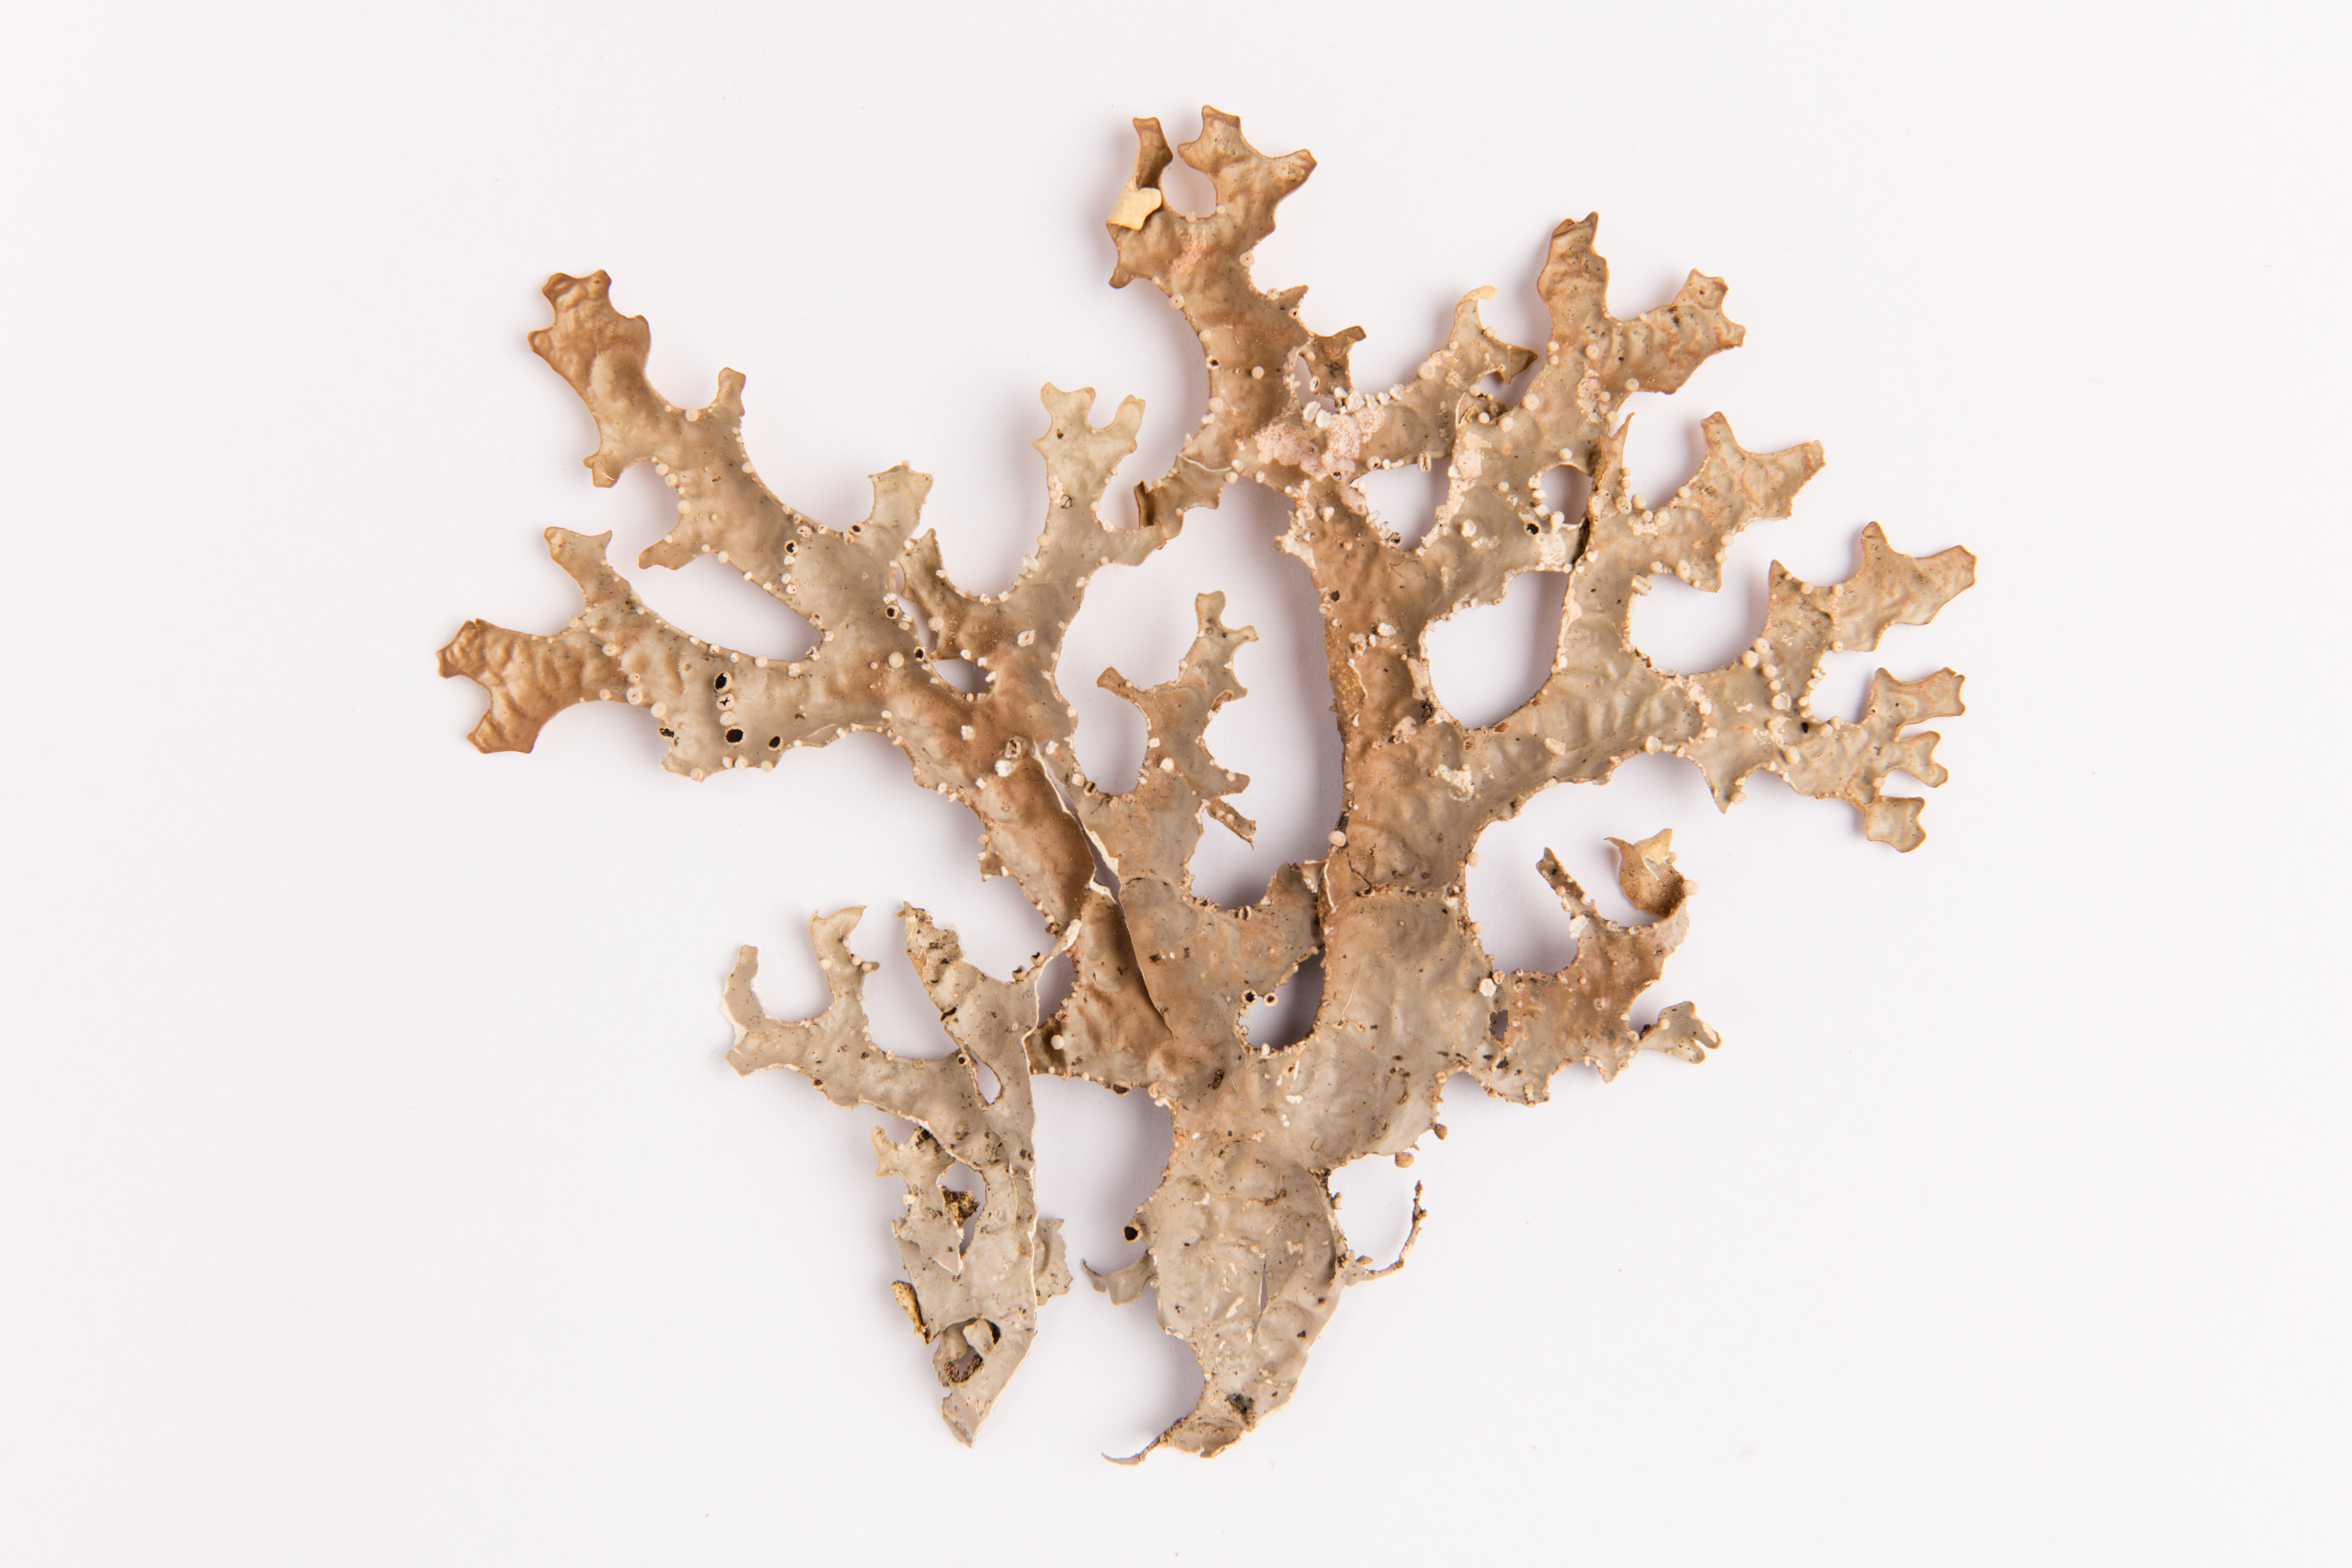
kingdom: Fungi
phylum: Ascomycota
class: Lecanoromycetes
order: Peltigerales
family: Lobariaceae
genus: Pseudocyphellaria
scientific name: Pseudocyphellaria carpoloma
